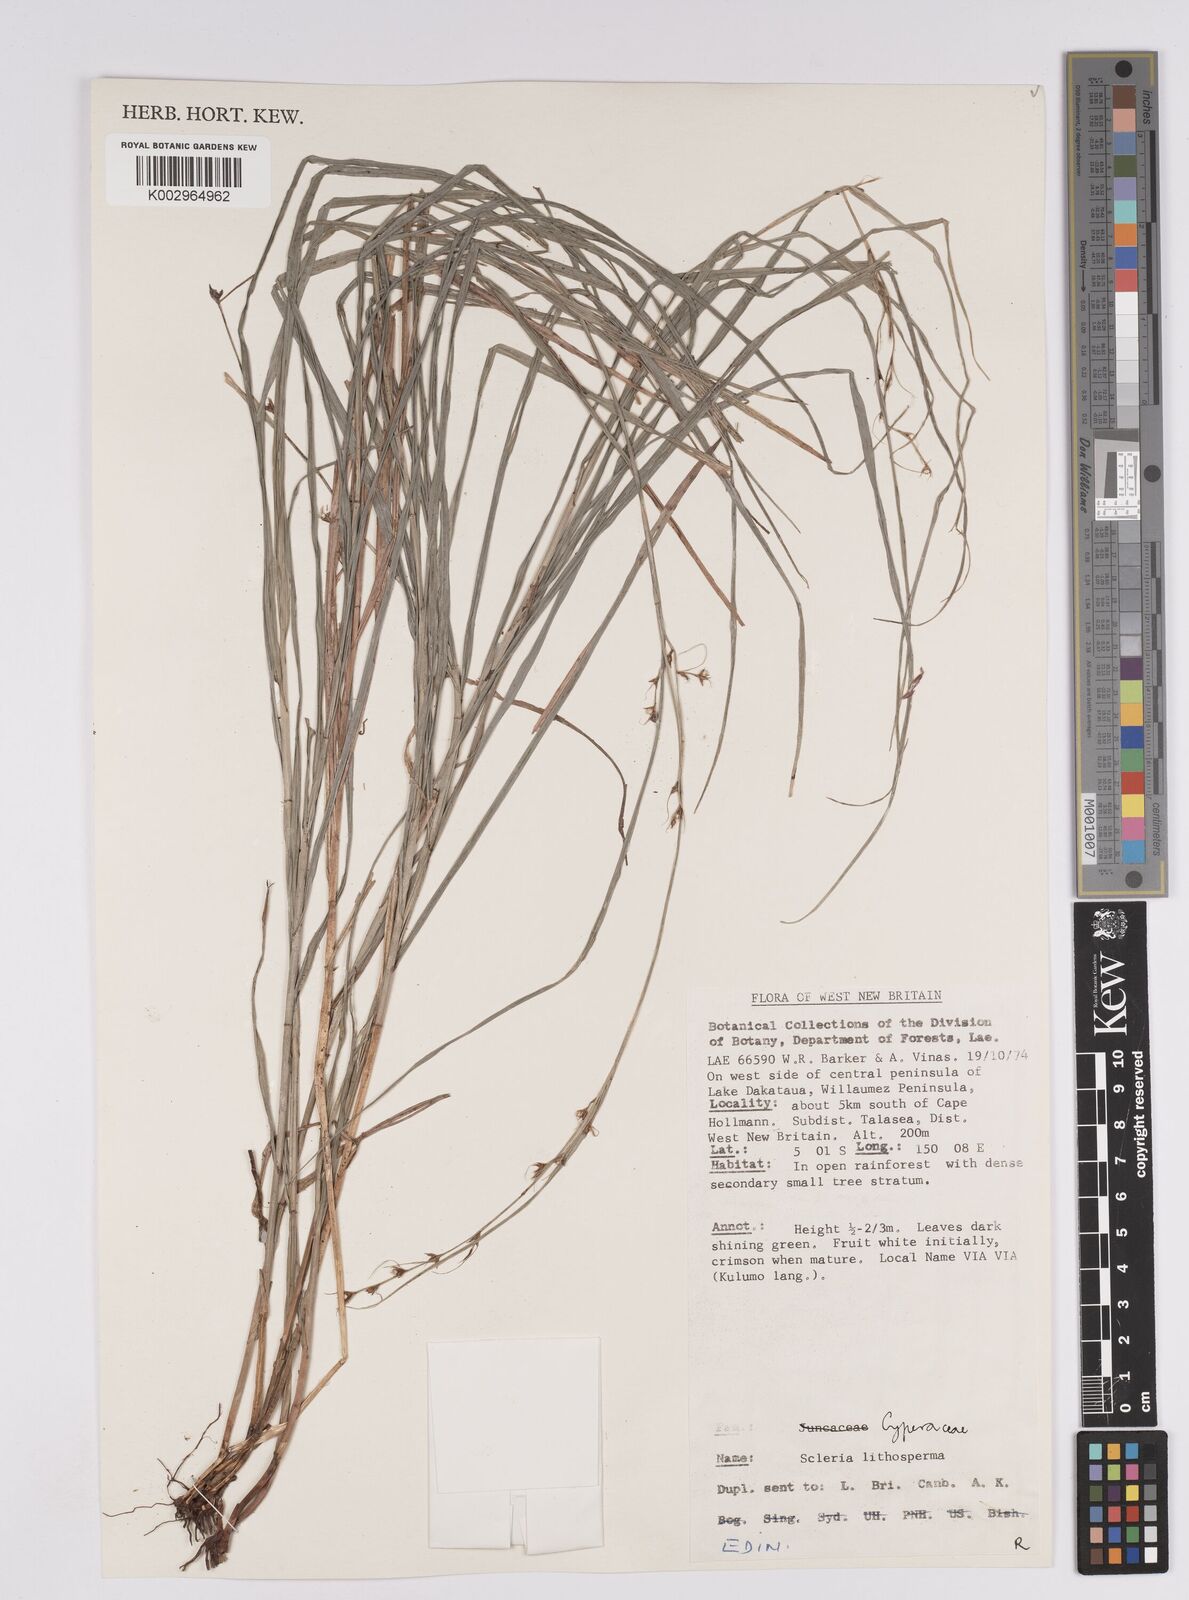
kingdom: Plantae
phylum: Tracheophyta
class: Liliopsida
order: Poales
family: Cyperaceae
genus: Scleria
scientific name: Scleria lithosperma
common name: Florida keys nut-rush
